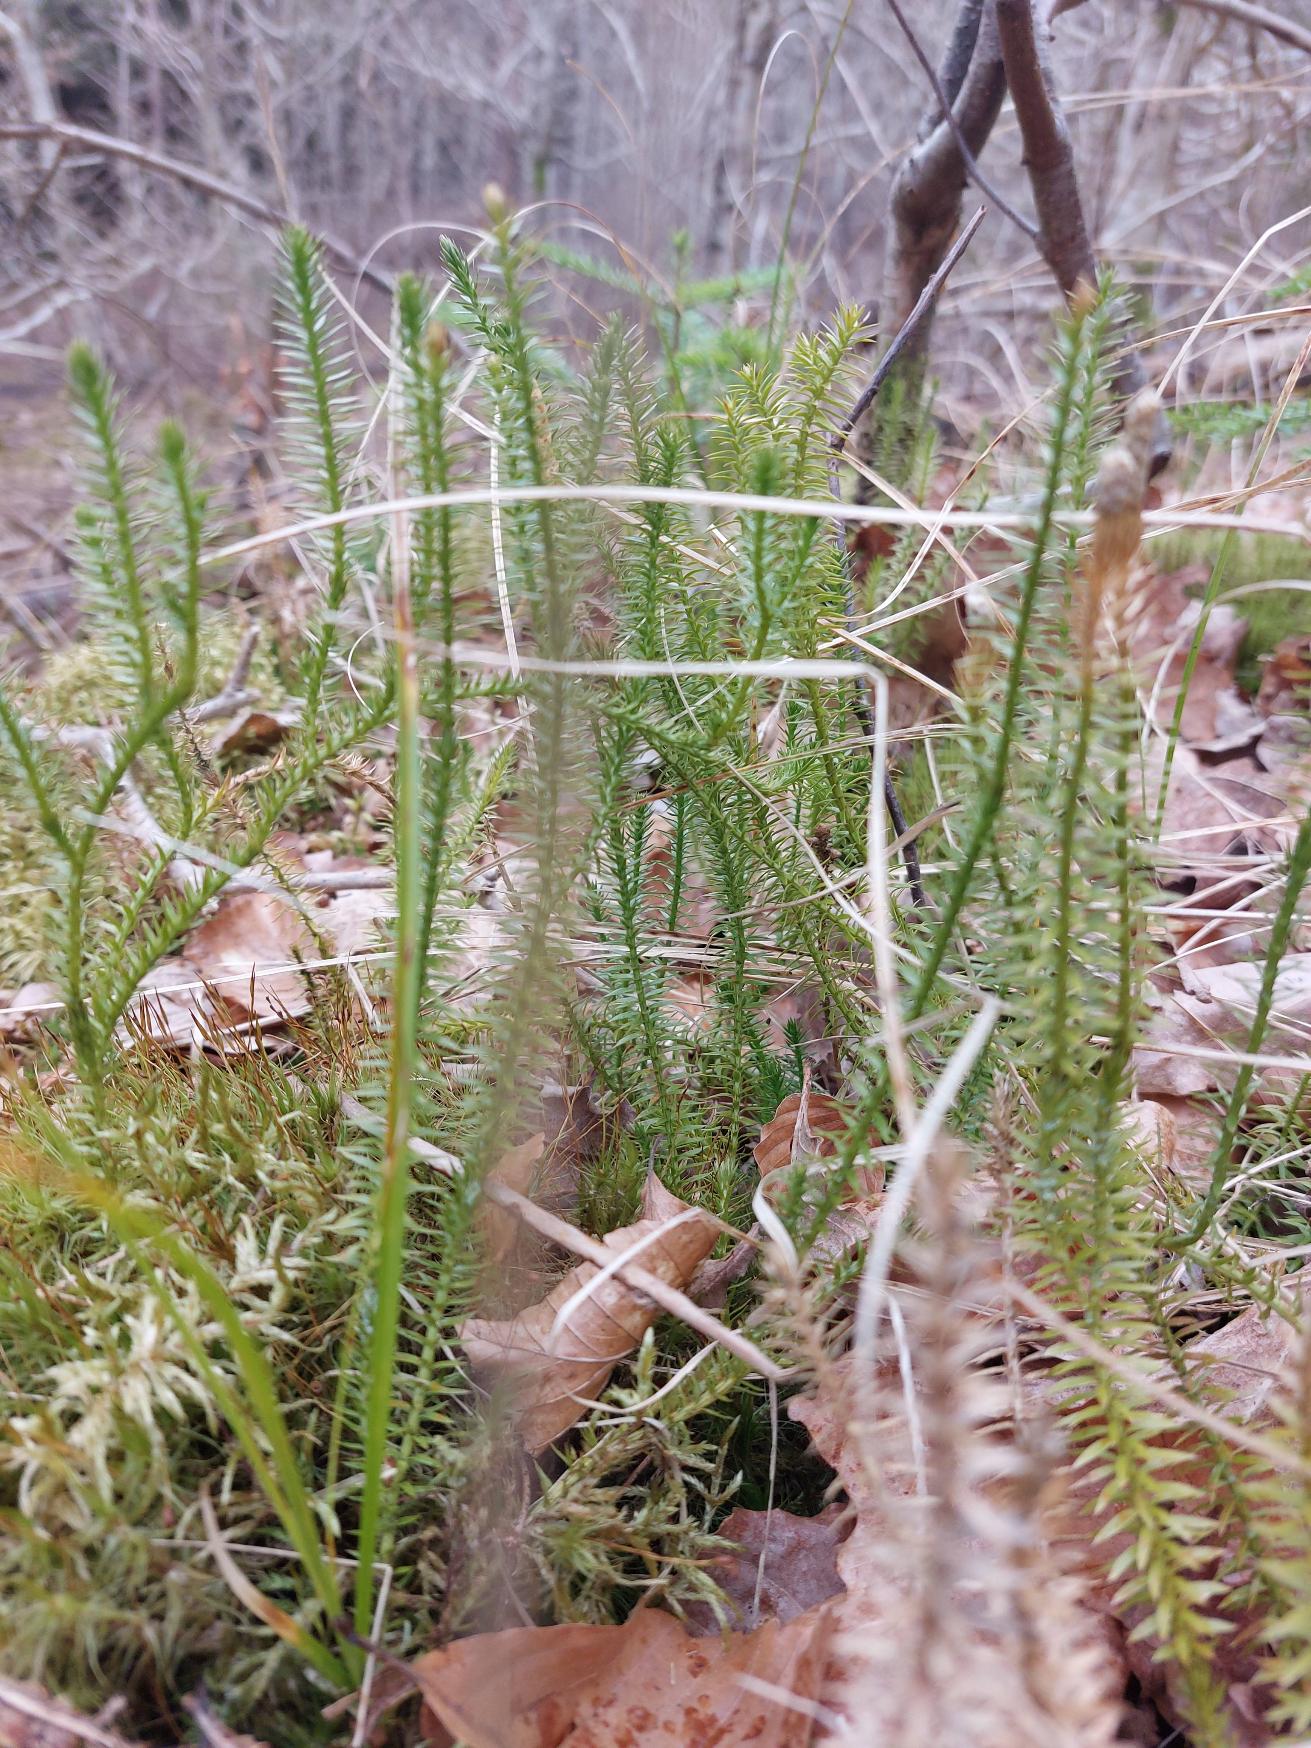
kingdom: Plantae
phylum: Tracheophyta
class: Lycopodiopsida
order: Lycopodiales
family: Lycopodiaceae
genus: Spinulum
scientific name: Spinulum annotinum
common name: Femradet ulvefod
